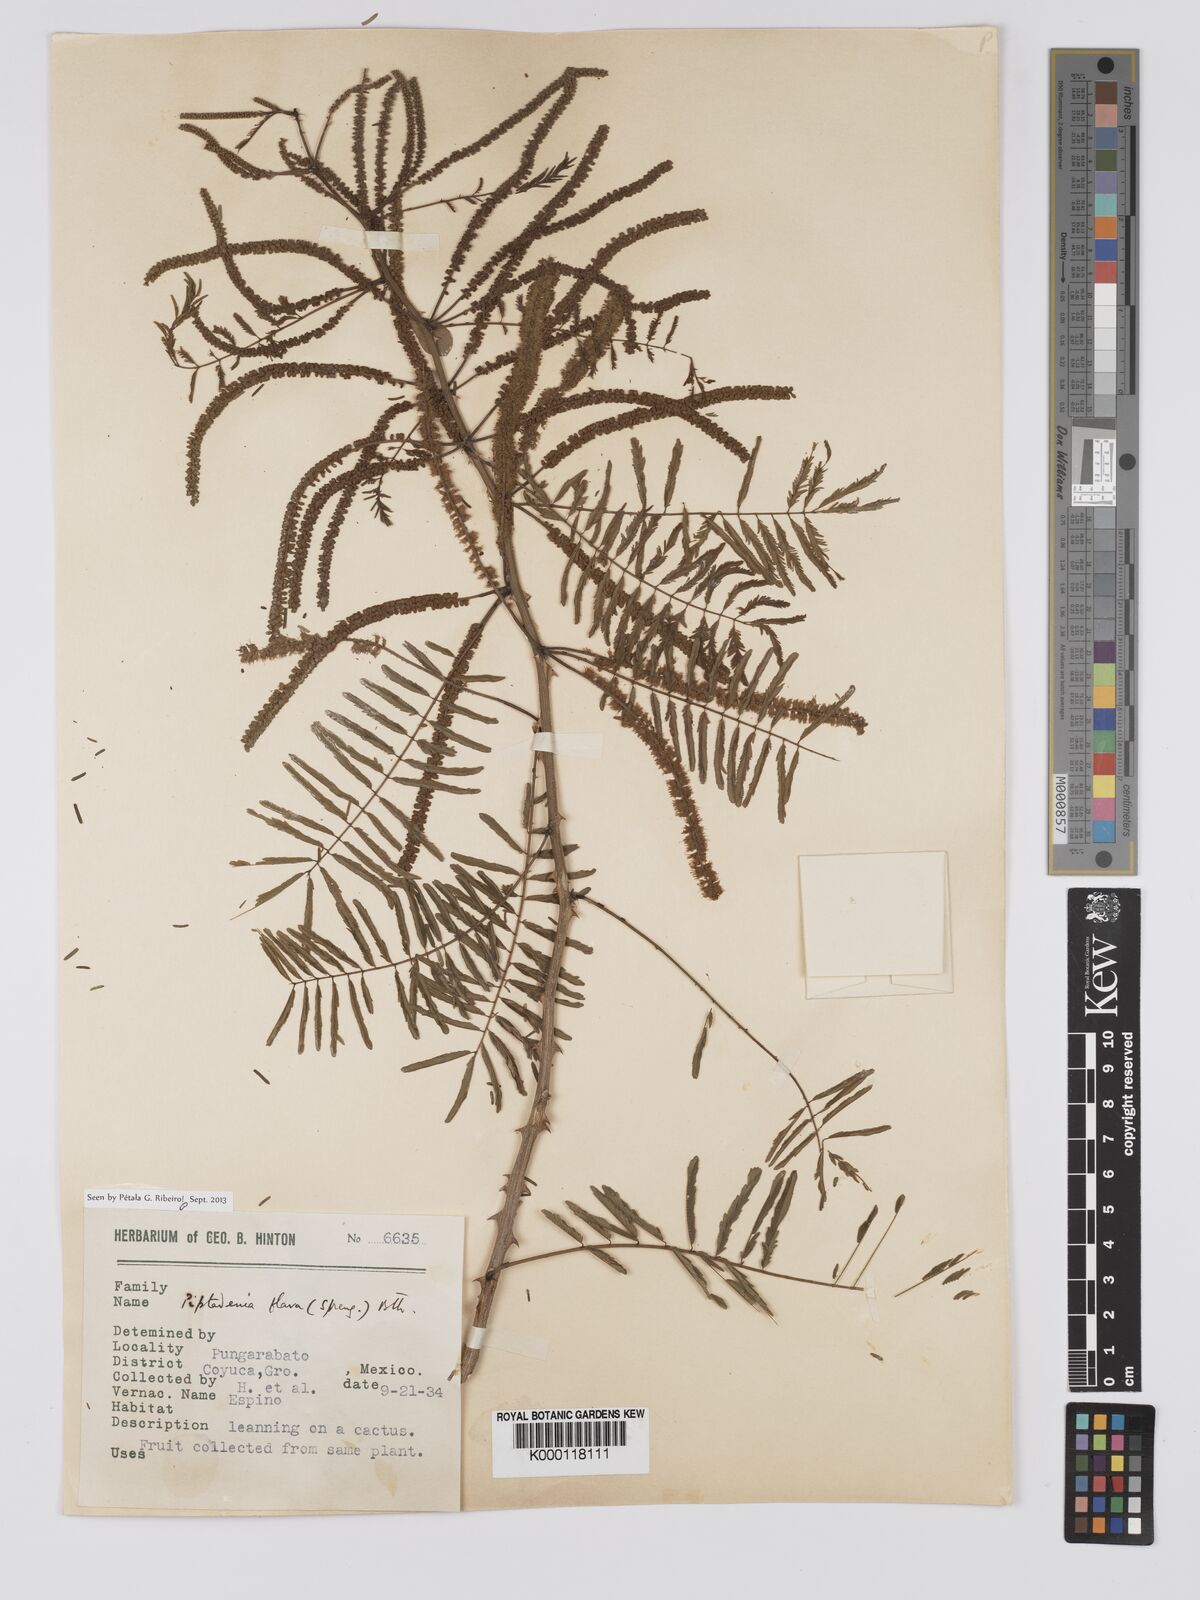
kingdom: Plantae
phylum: Tracheophyta
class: Magnoliopsida
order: Fabales
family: Fabaceae
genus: Piptadenia
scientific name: Piptadenia
